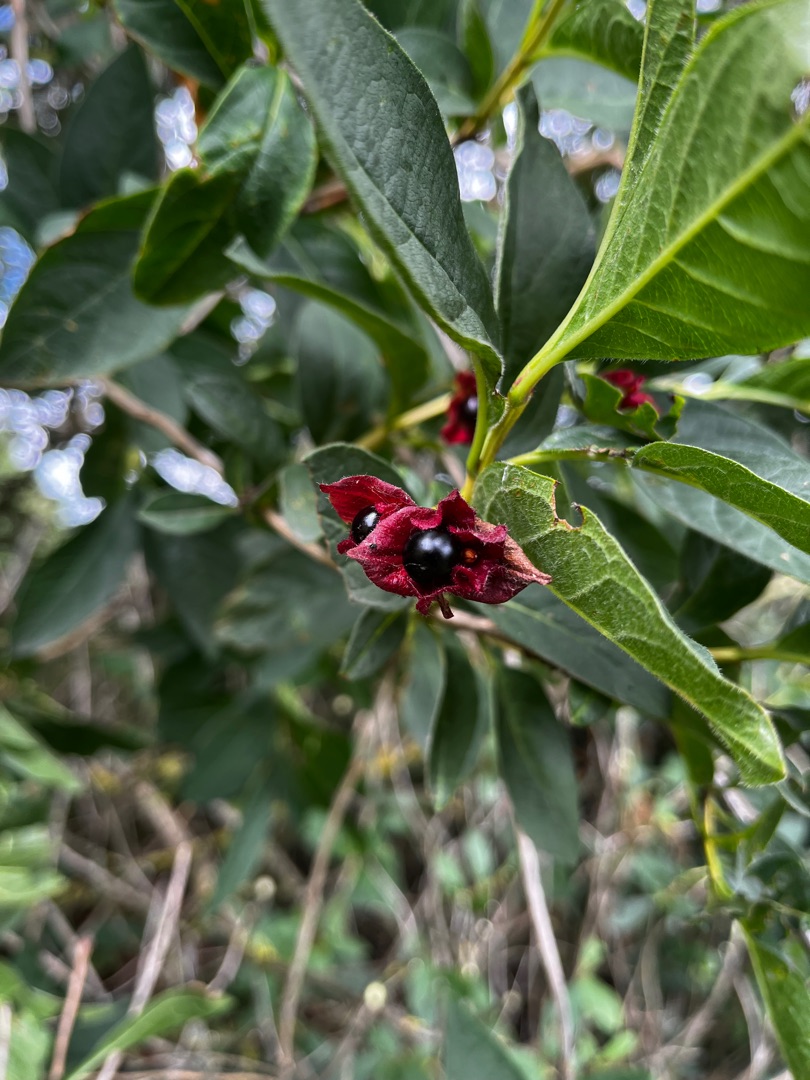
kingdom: Plantae
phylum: Tracheophyta
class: Magnoliopsida
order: Dipsacales
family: Caprifoliaceae
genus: Lonicera
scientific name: Lonicera involucrata
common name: Californisk gedeblad
